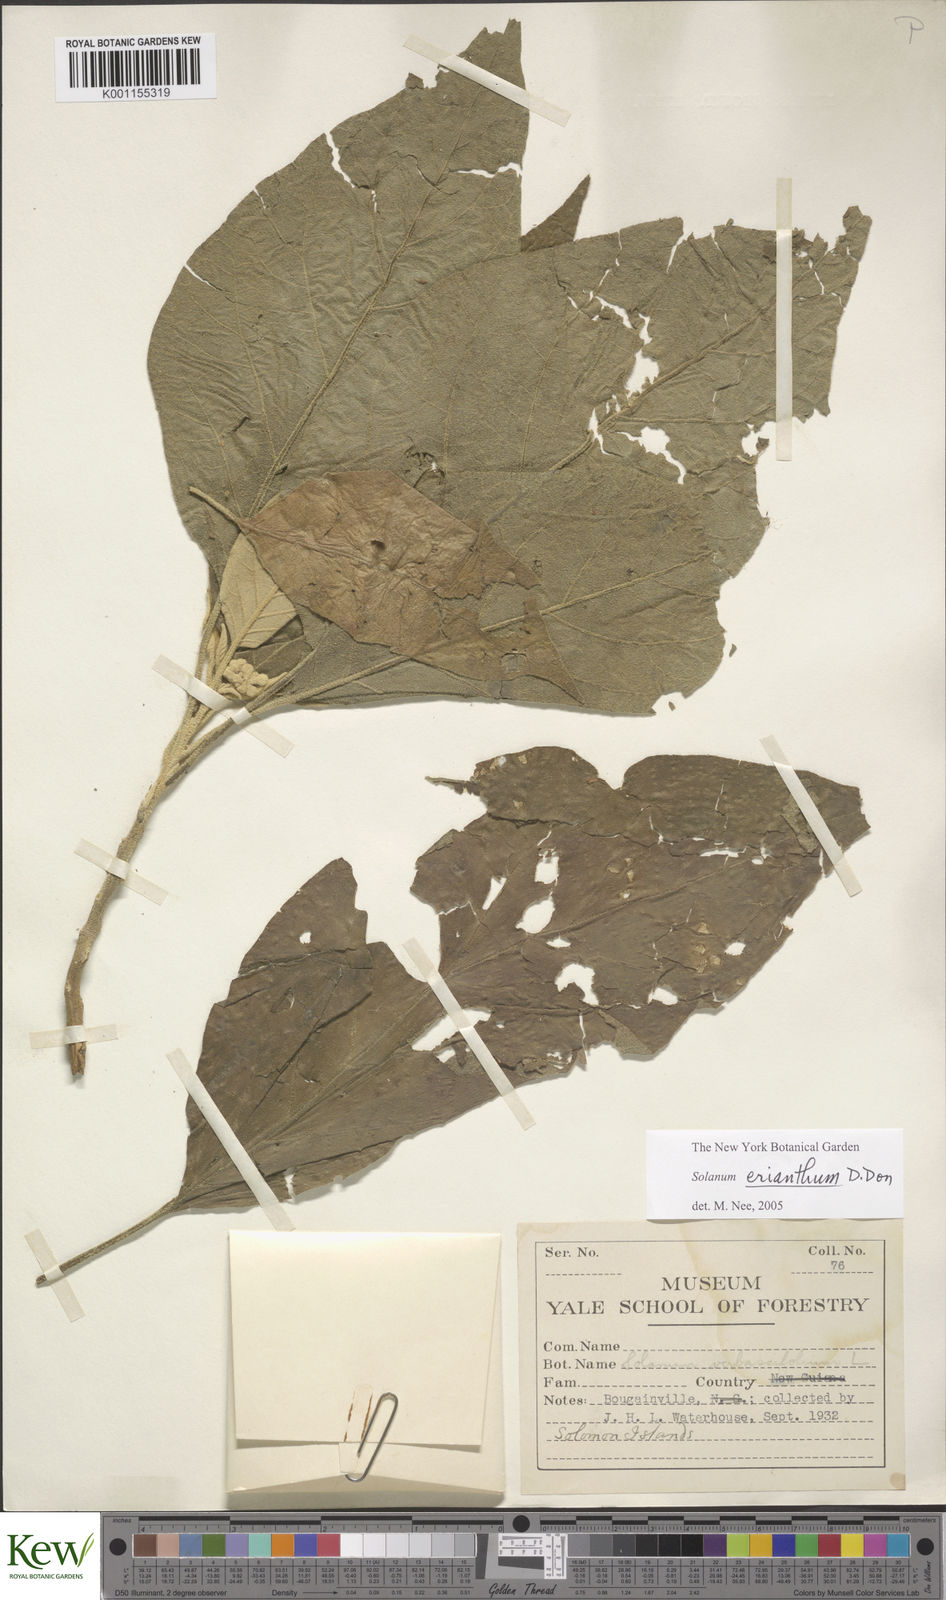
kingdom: Plantae
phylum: Tracheophyta
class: Magnoliopsida
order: Solanales
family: Solanaceae
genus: Solanum
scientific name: Solanum erianthum
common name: Tobacco-tree
